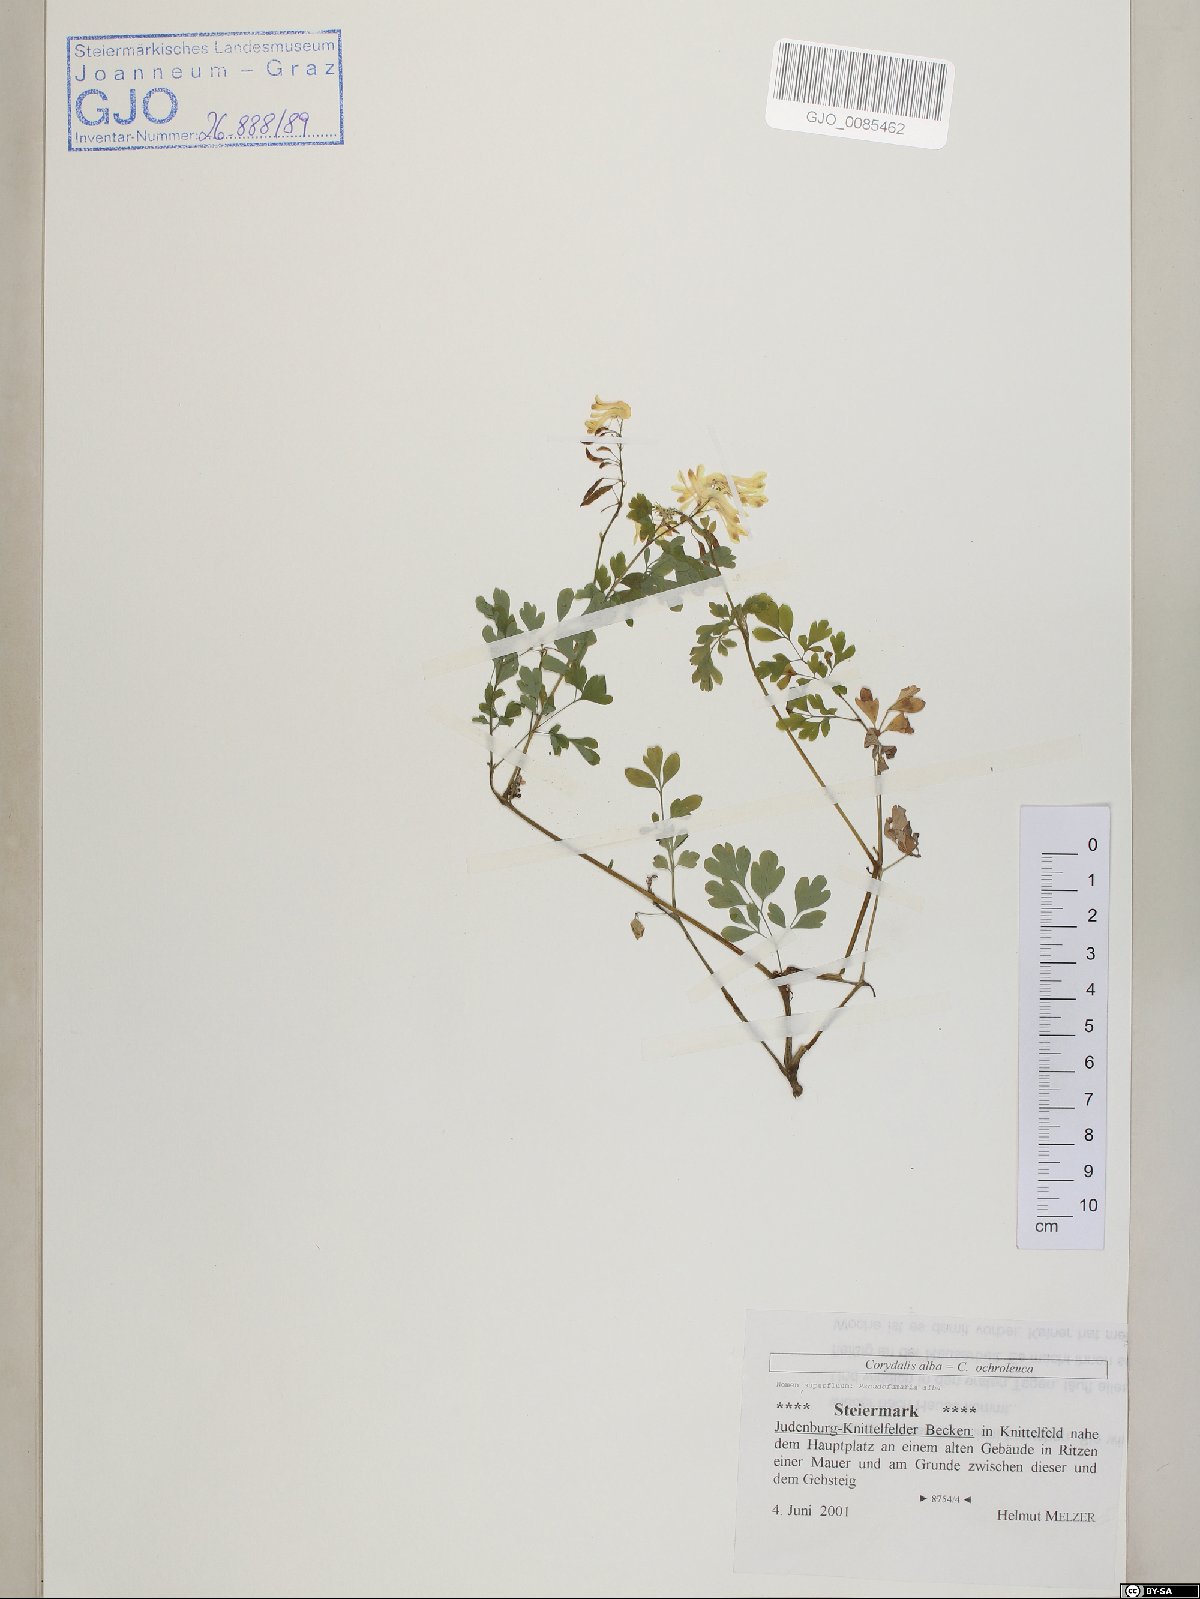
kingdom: Plantae
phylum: Tracheophyta
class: Magnoliopsida
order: Ranunculales
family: Papaveraceae
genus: Pseudofumaria
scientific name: Pseudofumaria alba
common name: Pale corydalis
